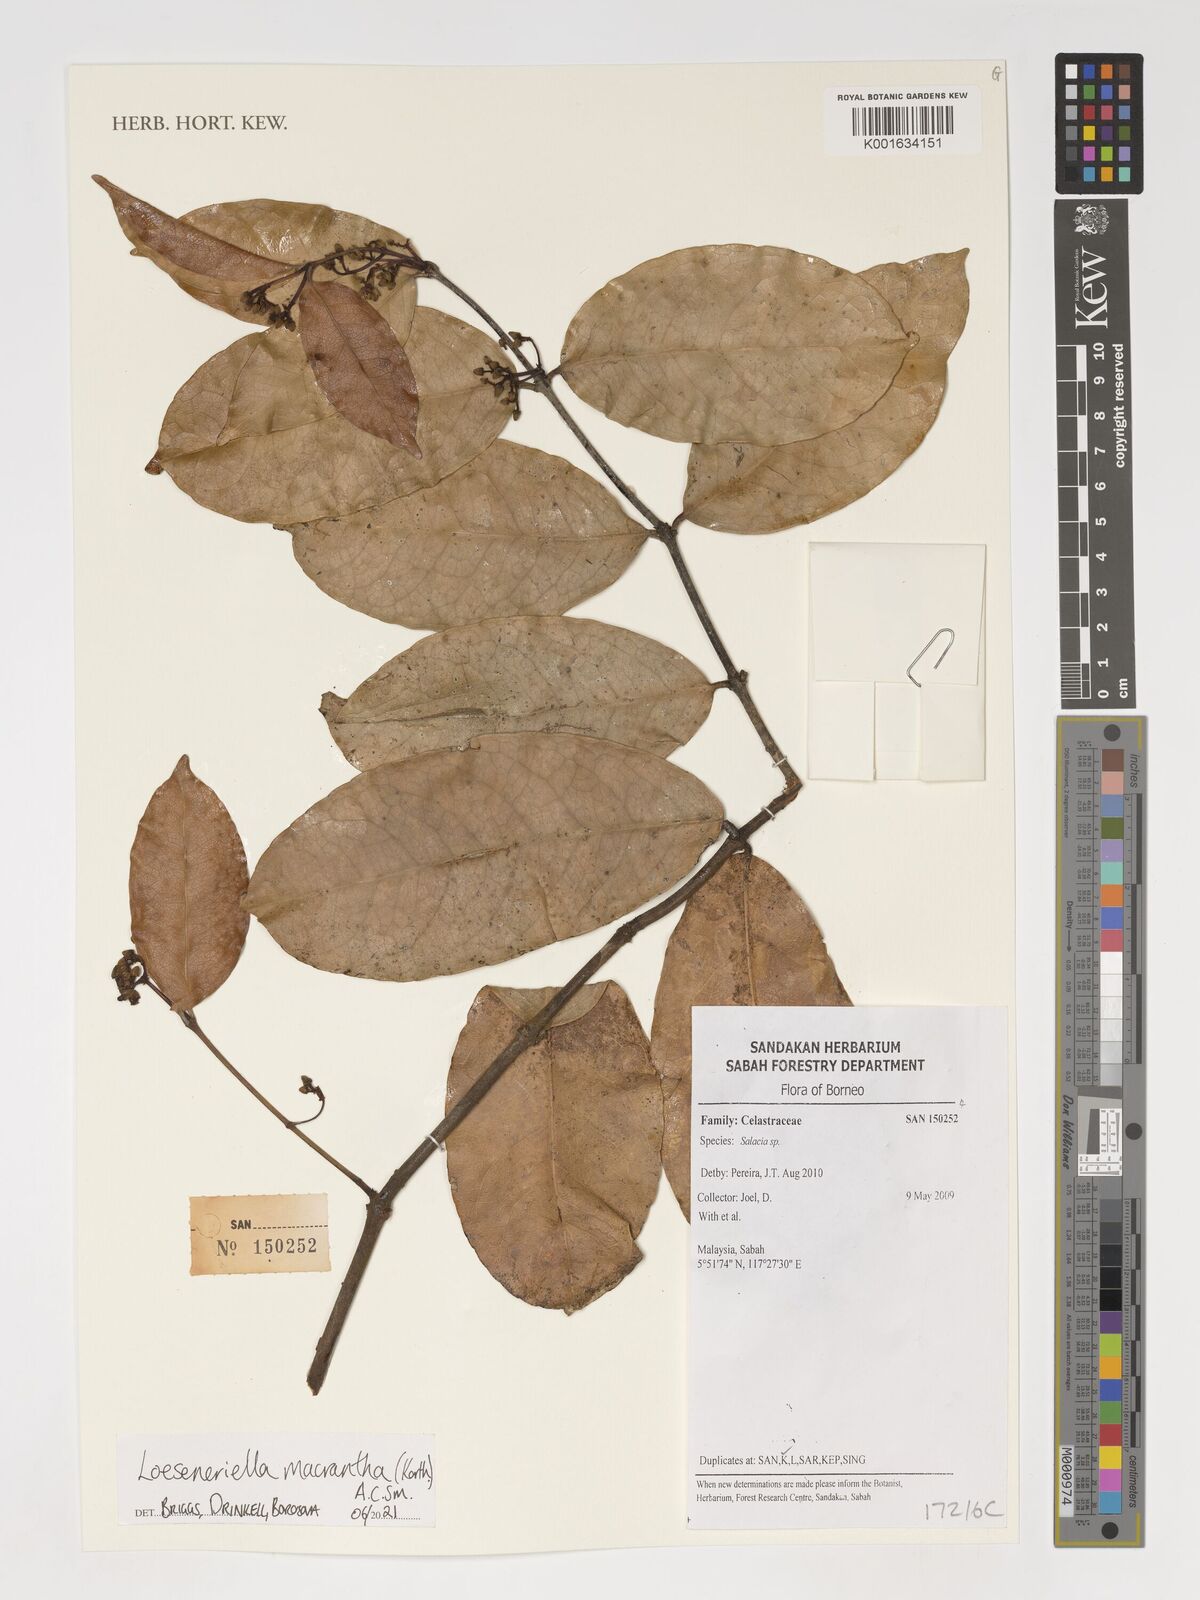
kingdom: Plantae
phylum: Tracheophyta
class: Magnoliopsida
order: Celastrales
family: Celastraceae
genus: Loeseneriella
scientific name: Loeseneriella macrantha
